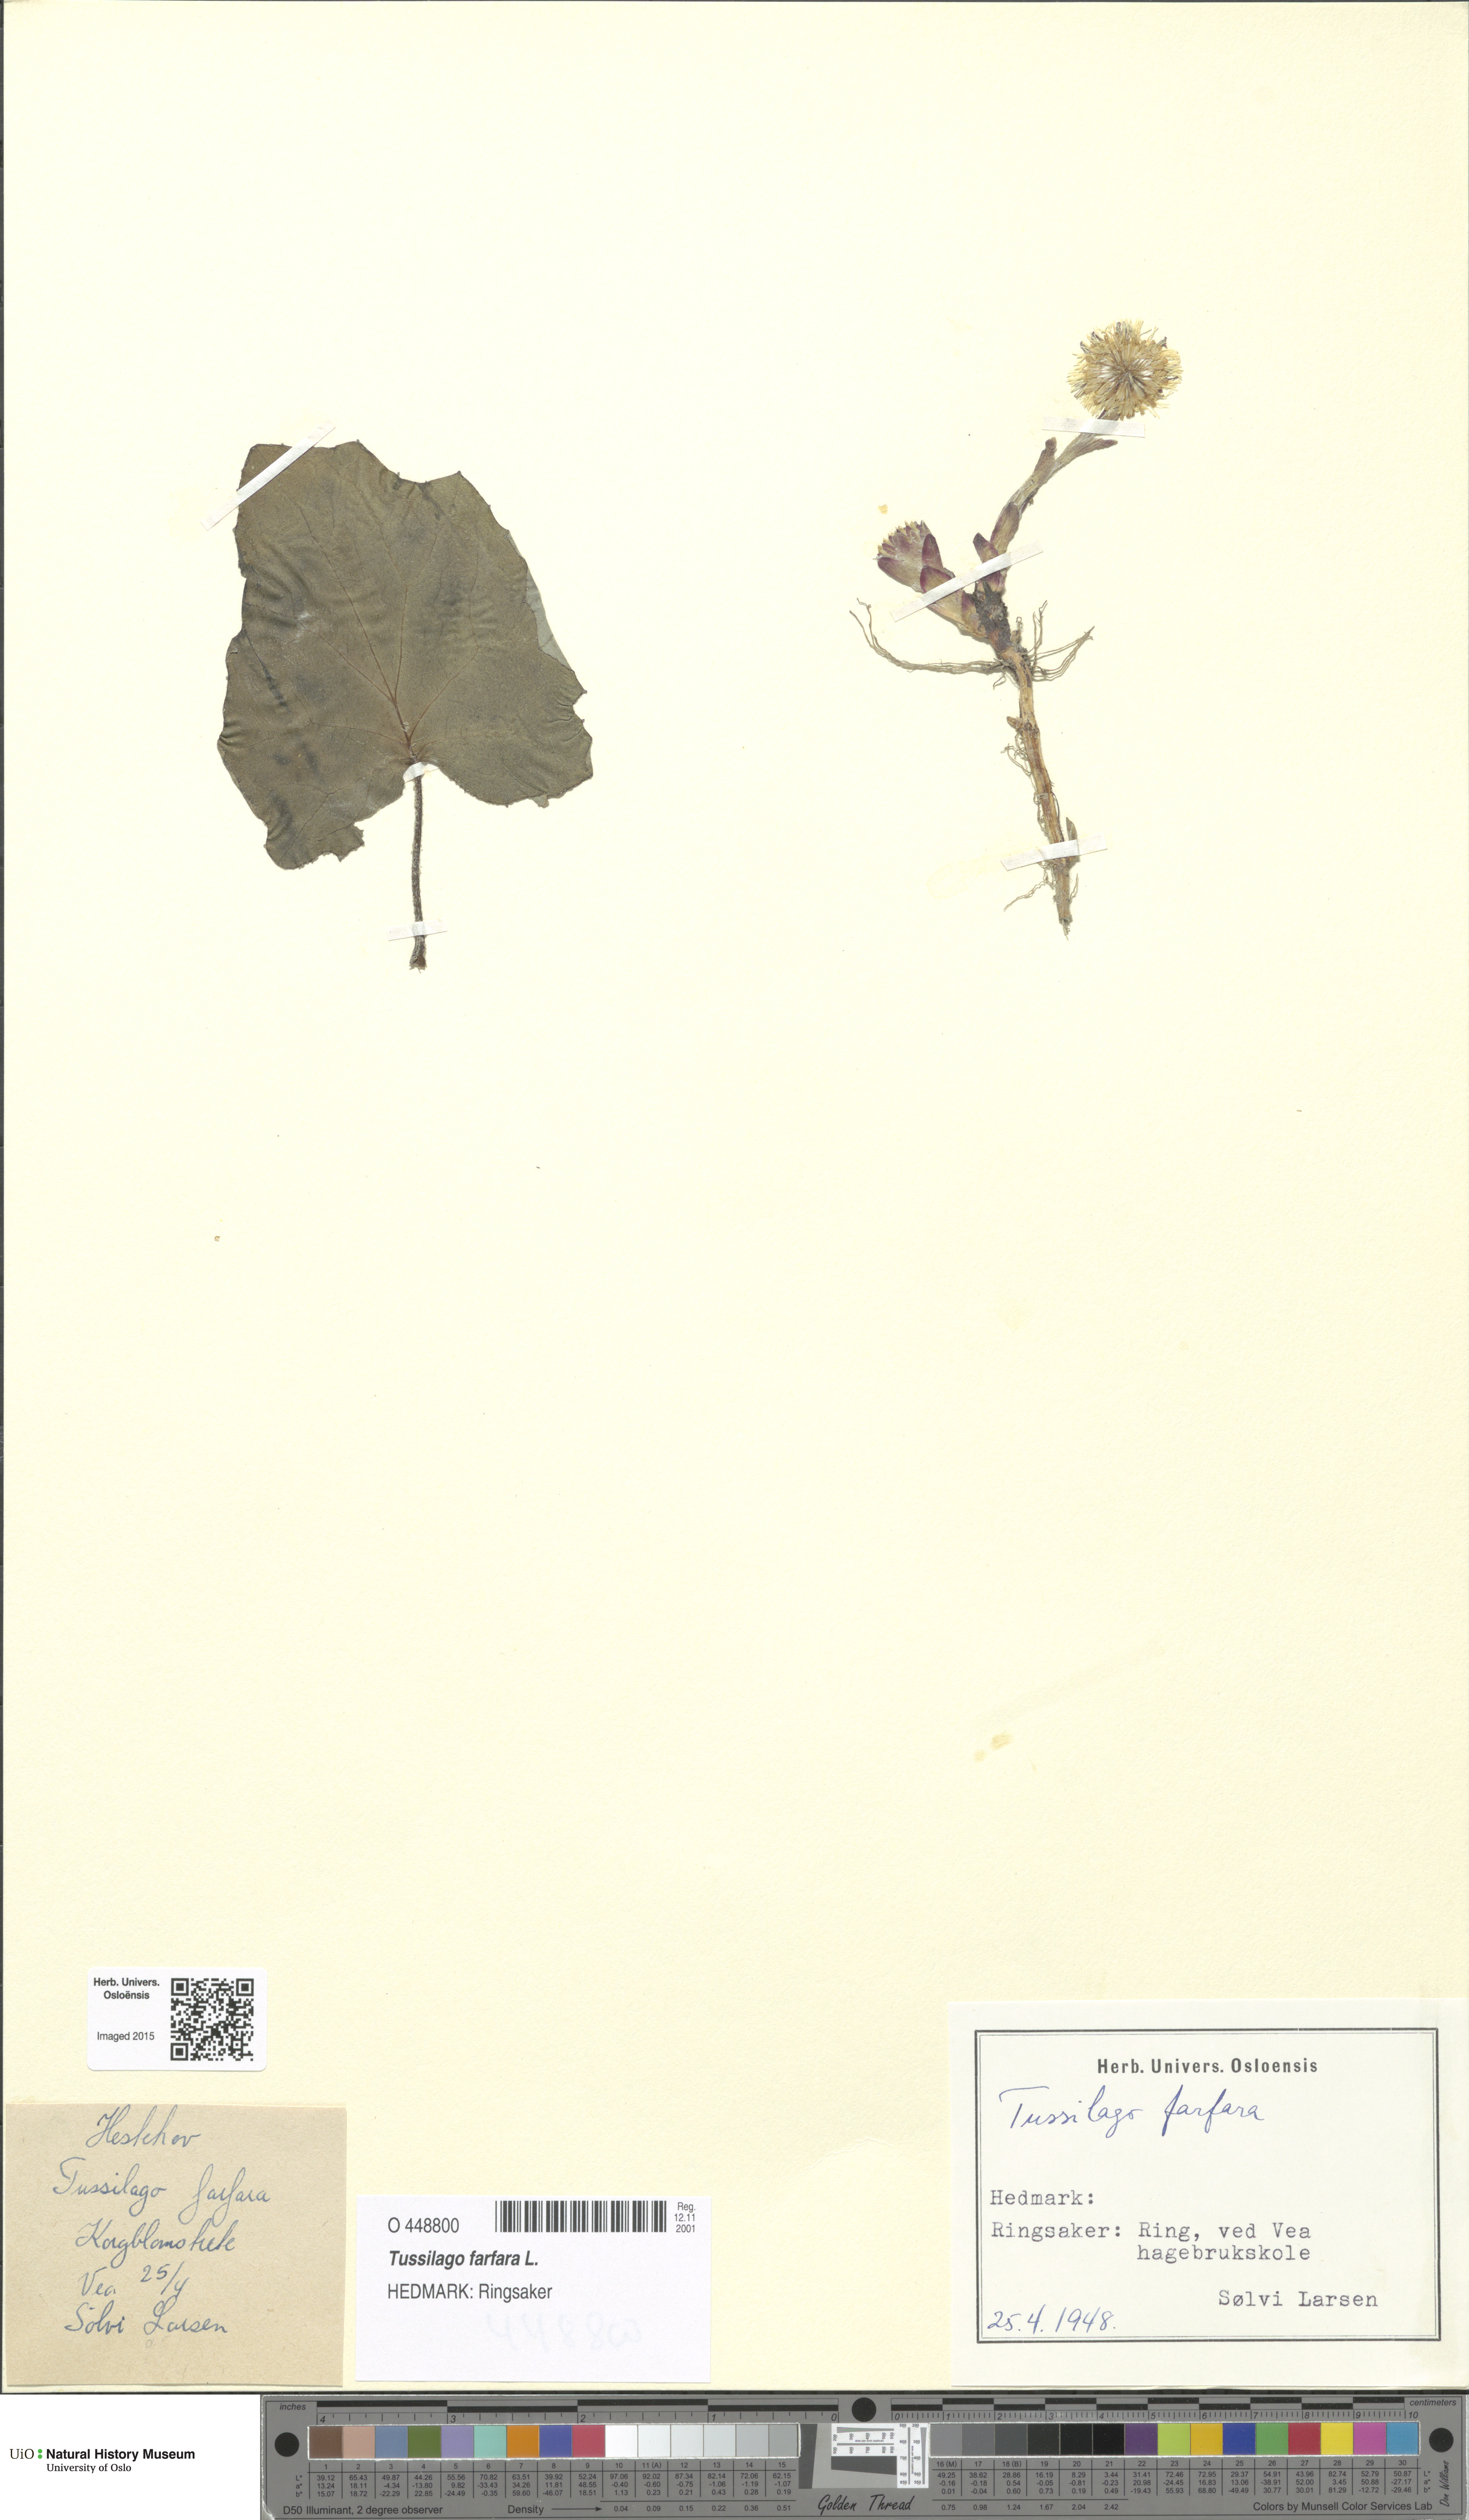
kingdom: Plantae
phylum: Tracheophyta
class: Magnoliopsida
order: Asterales
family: Asteraceae
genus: Tussilago
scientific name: Tussilago farfara
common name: Coltsfoot
